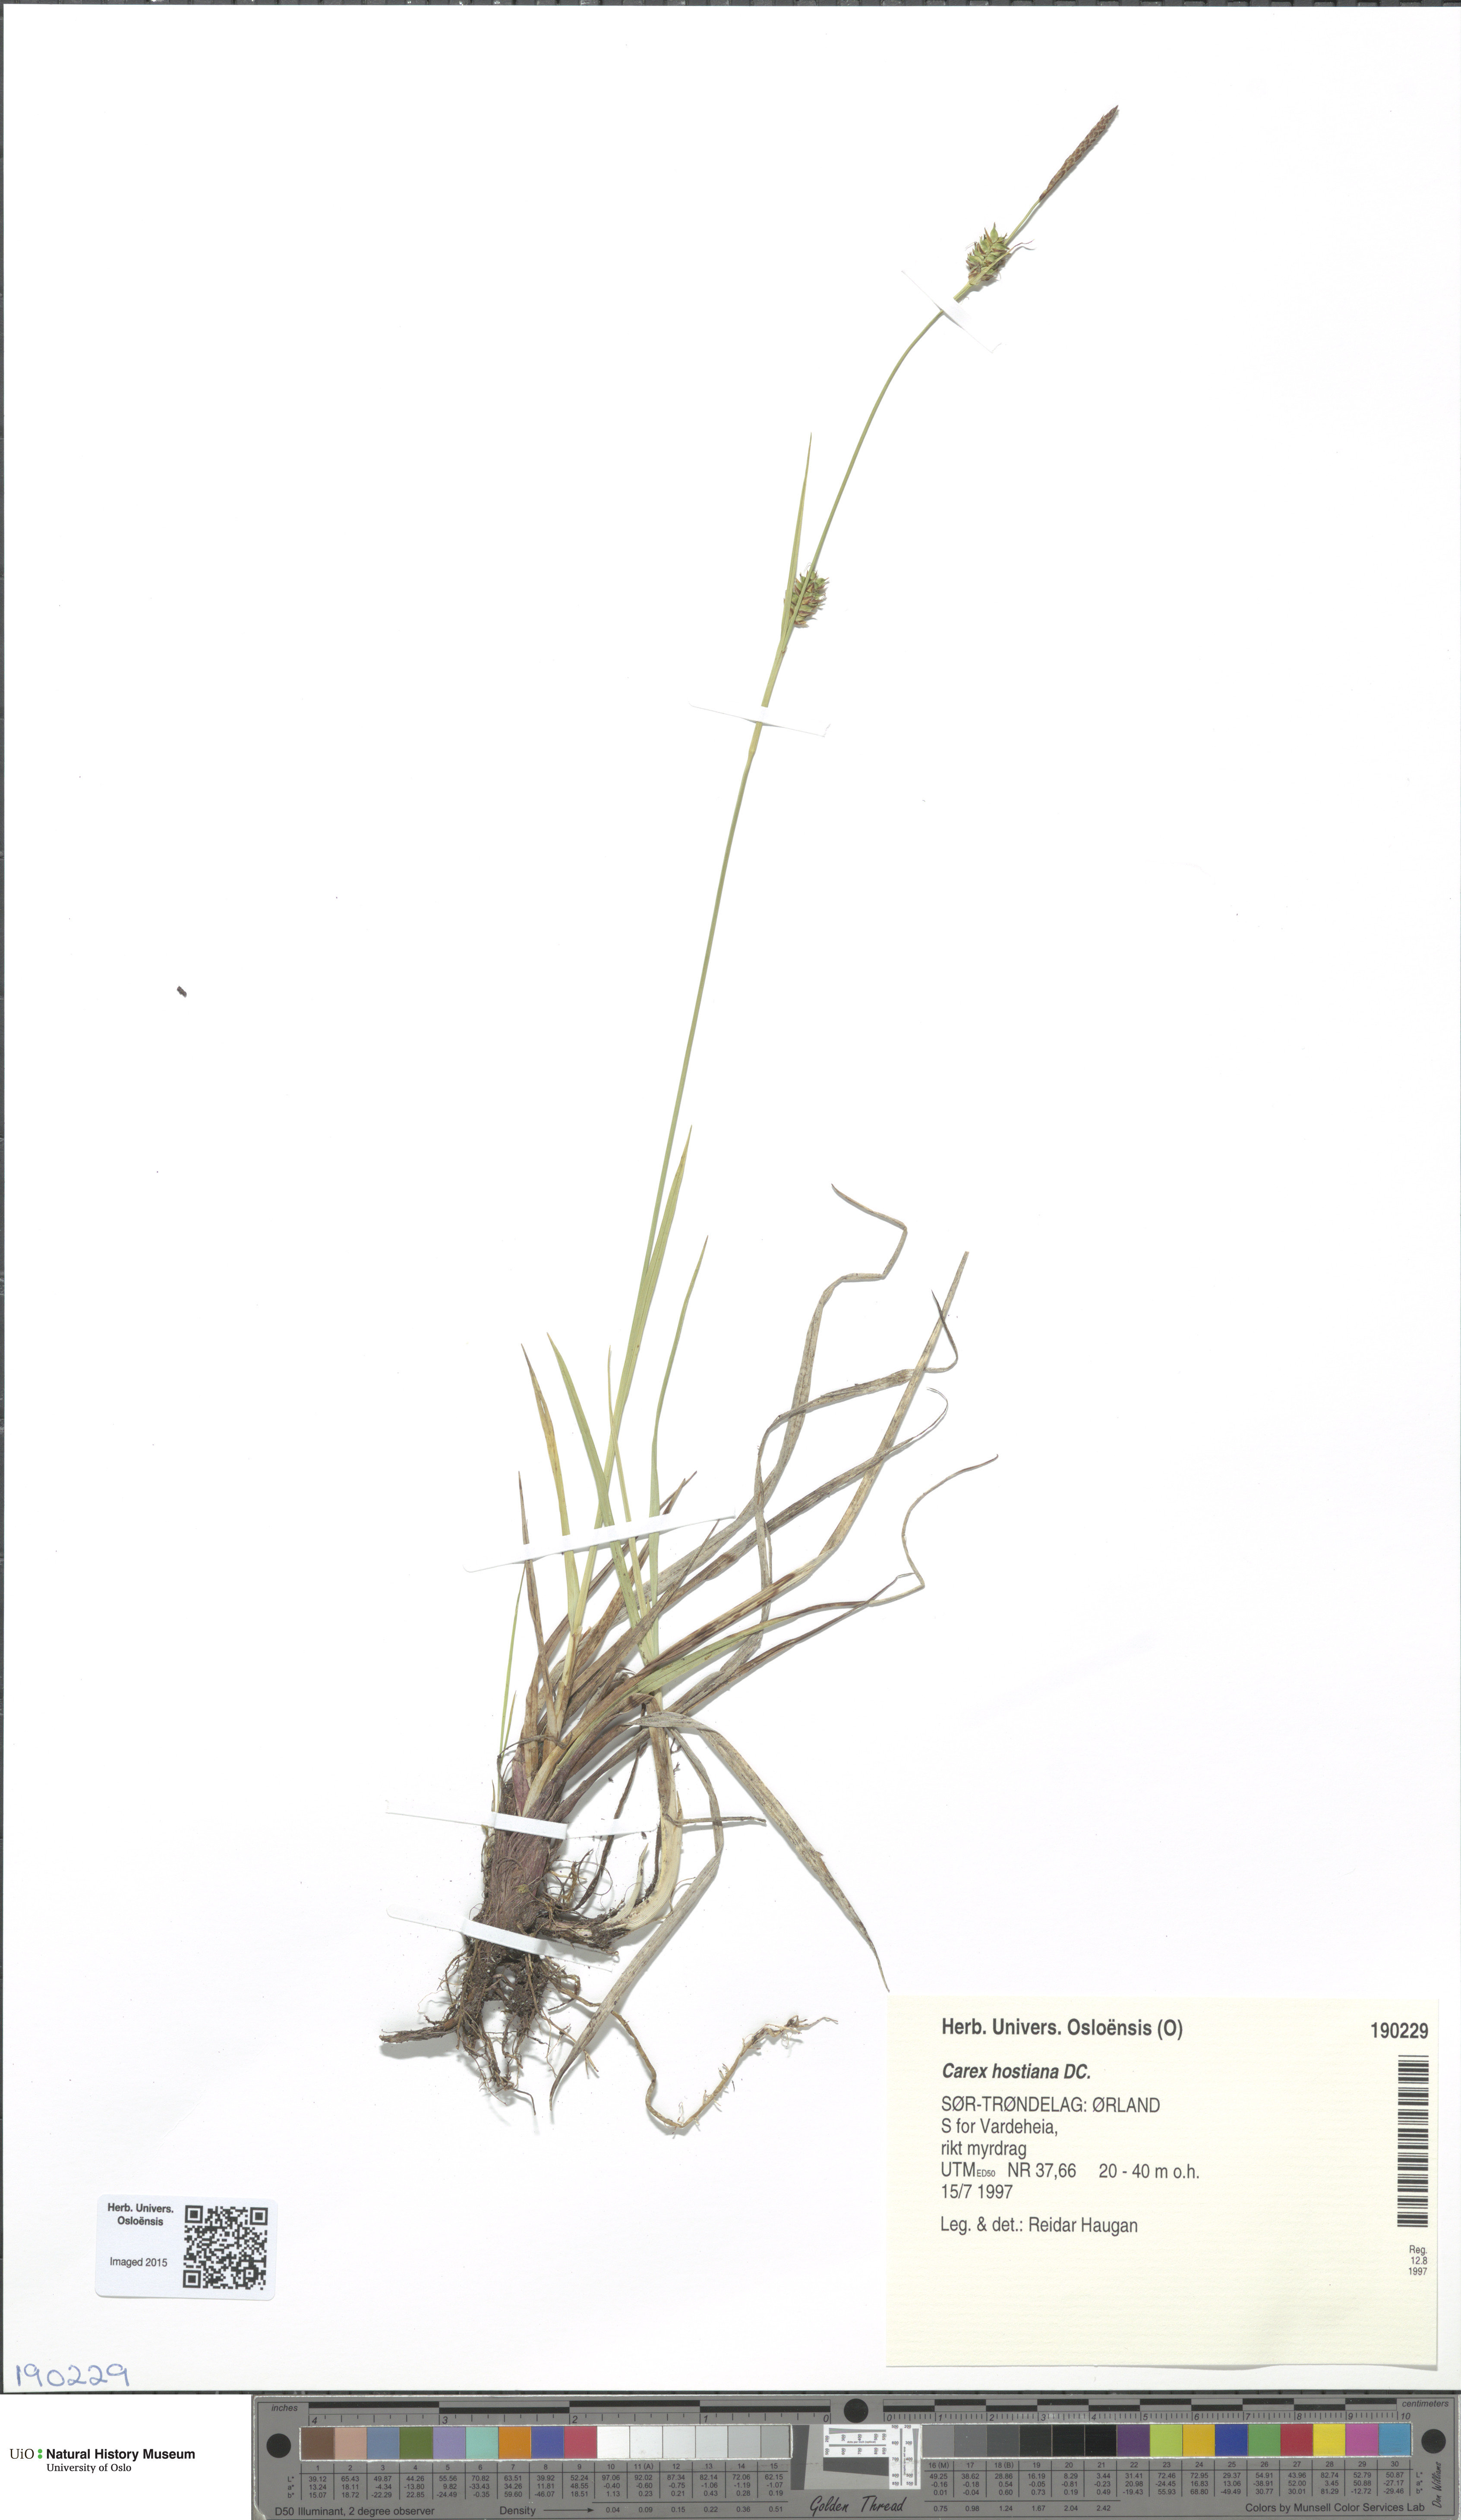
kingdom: Plantae
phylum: Tracheophyta
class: Liliopsida
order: Poales
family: Cyperaceae
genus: Carex
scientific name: Carex hostiana
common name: Tawny sedge
